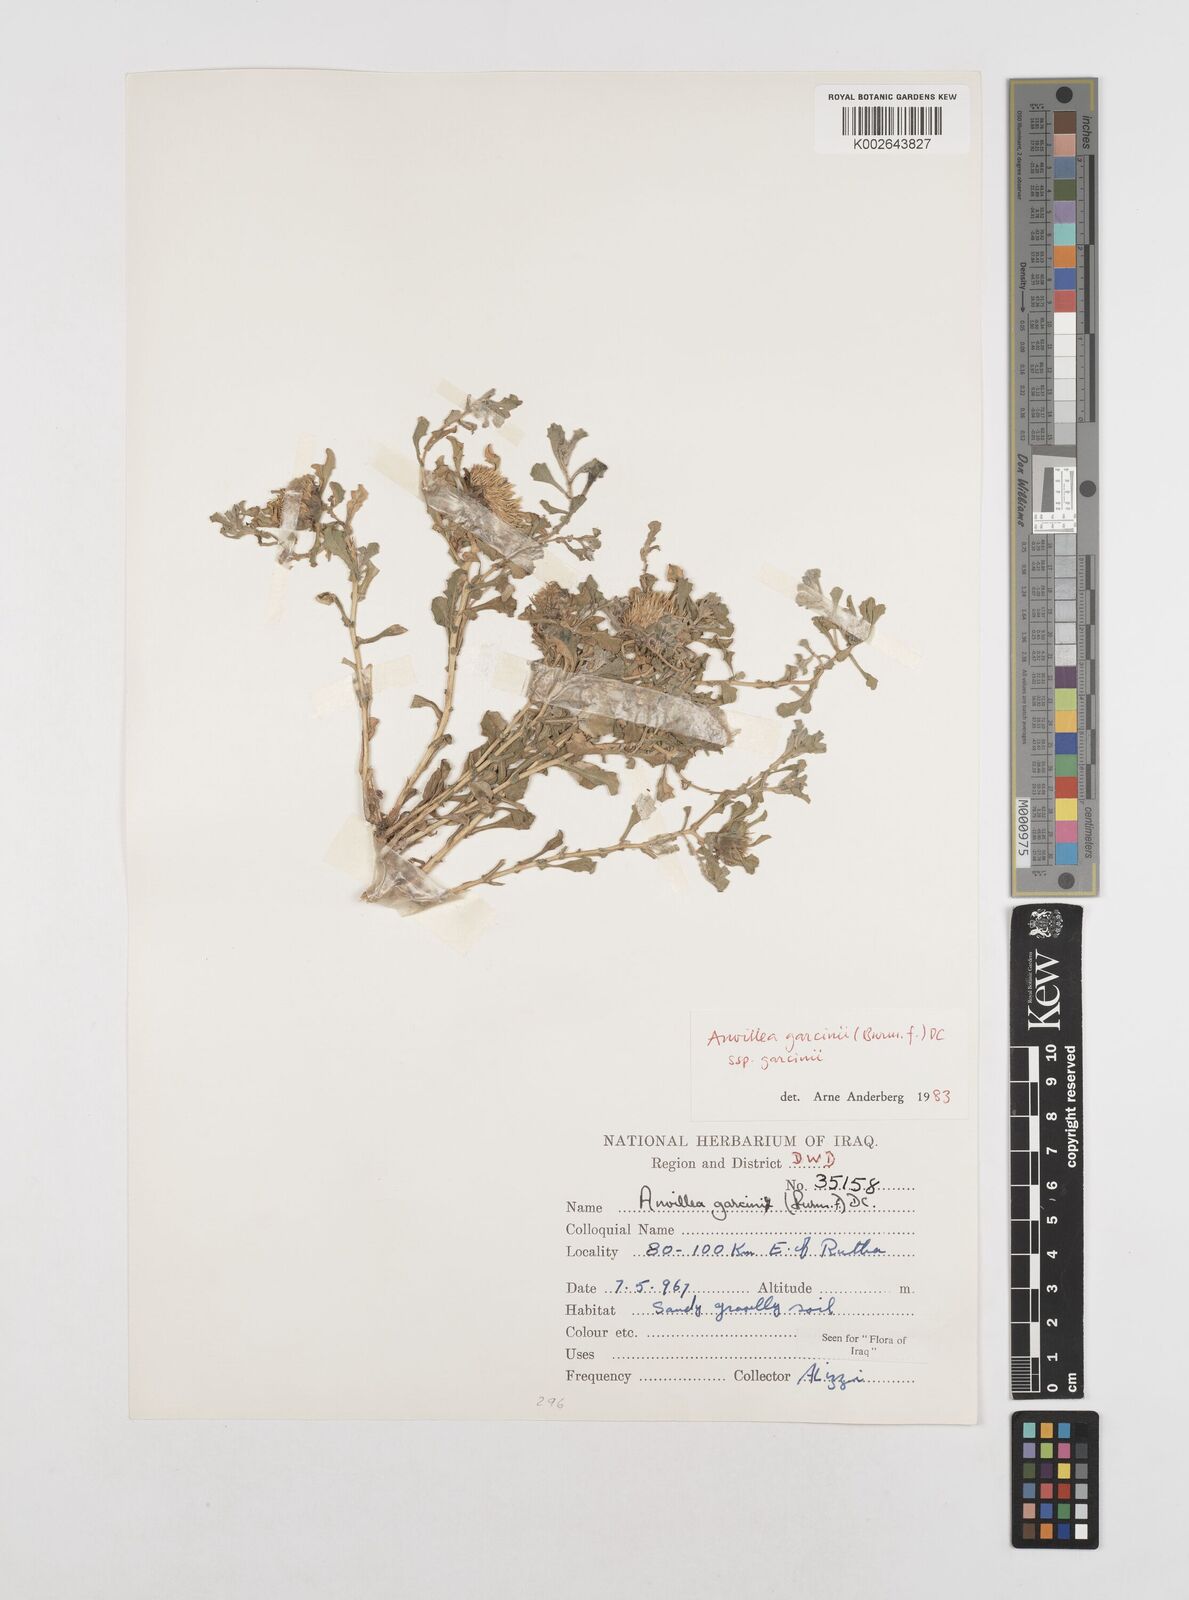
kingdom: Plantae
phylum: Tracheophyta
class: Magnoliopsida
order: Asterales
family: Asteraceae
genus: Anvillea
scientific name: Anvillea garcinii
